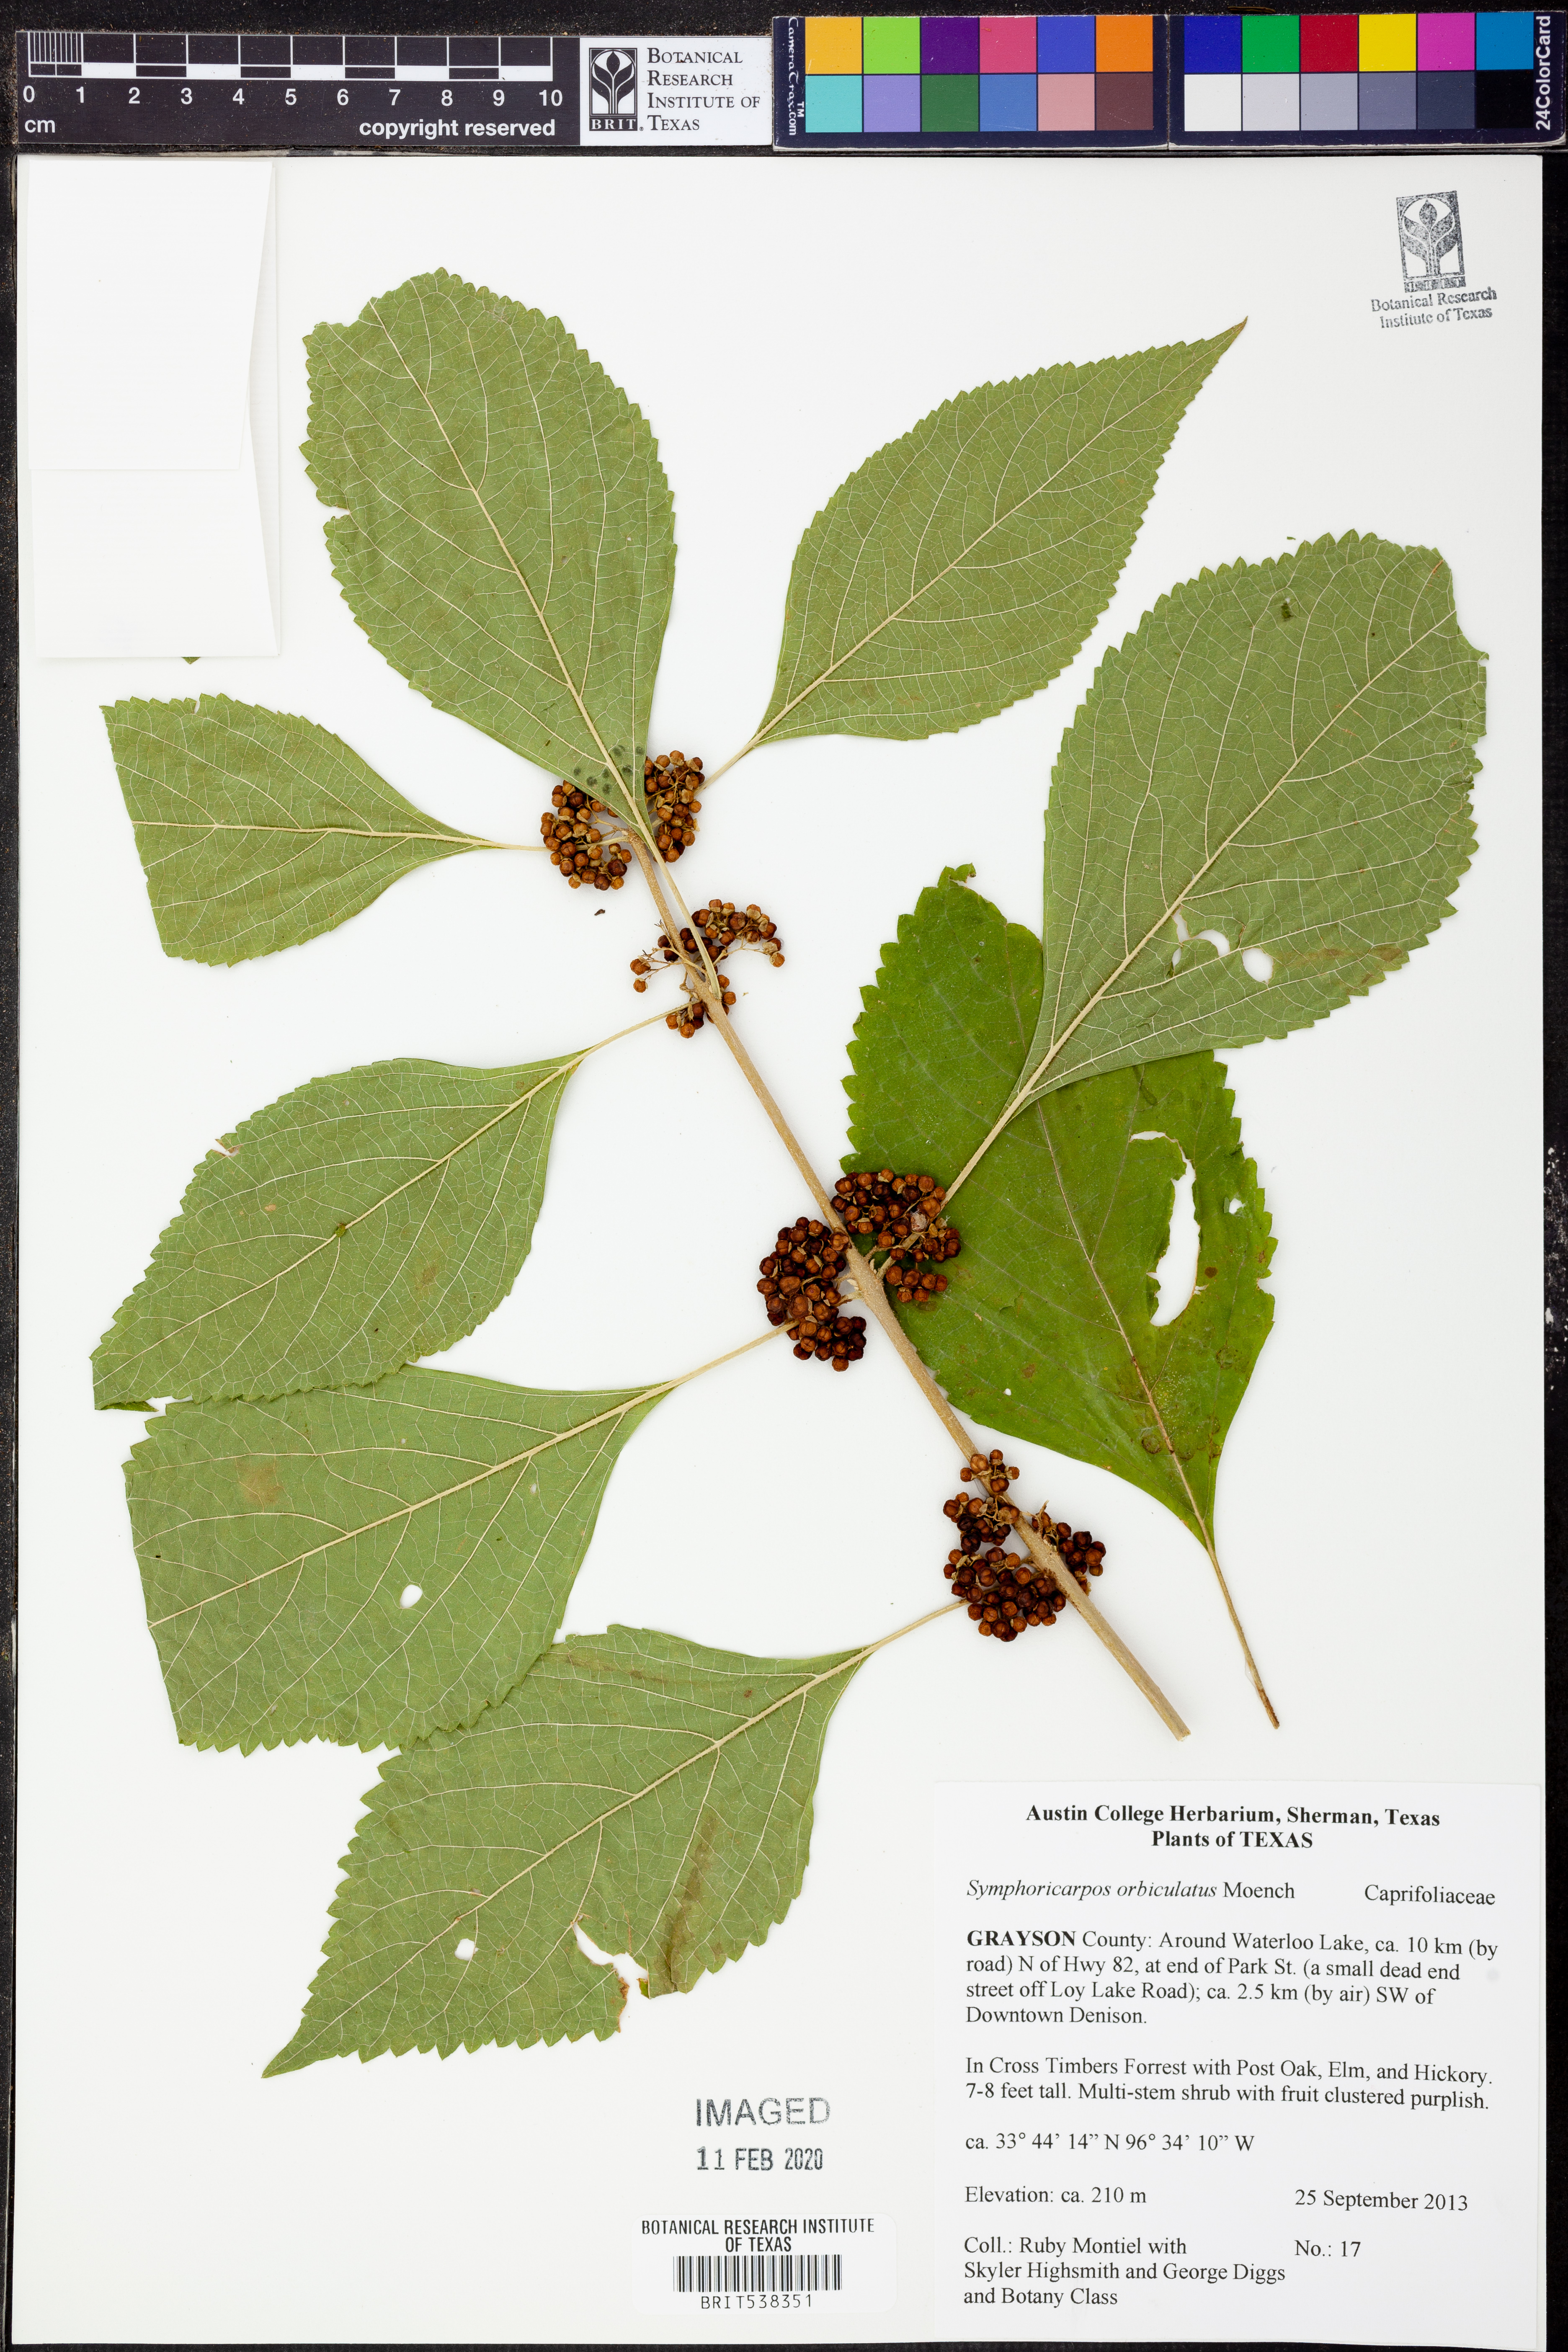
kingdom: Plantae
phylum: Tracheophyta
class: Magnoliopsida
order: Dipsacales
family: Caprifoliaceae
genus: Symphoricarpos
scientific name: Symphoricarpos orbiculatus
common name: Coralberry
